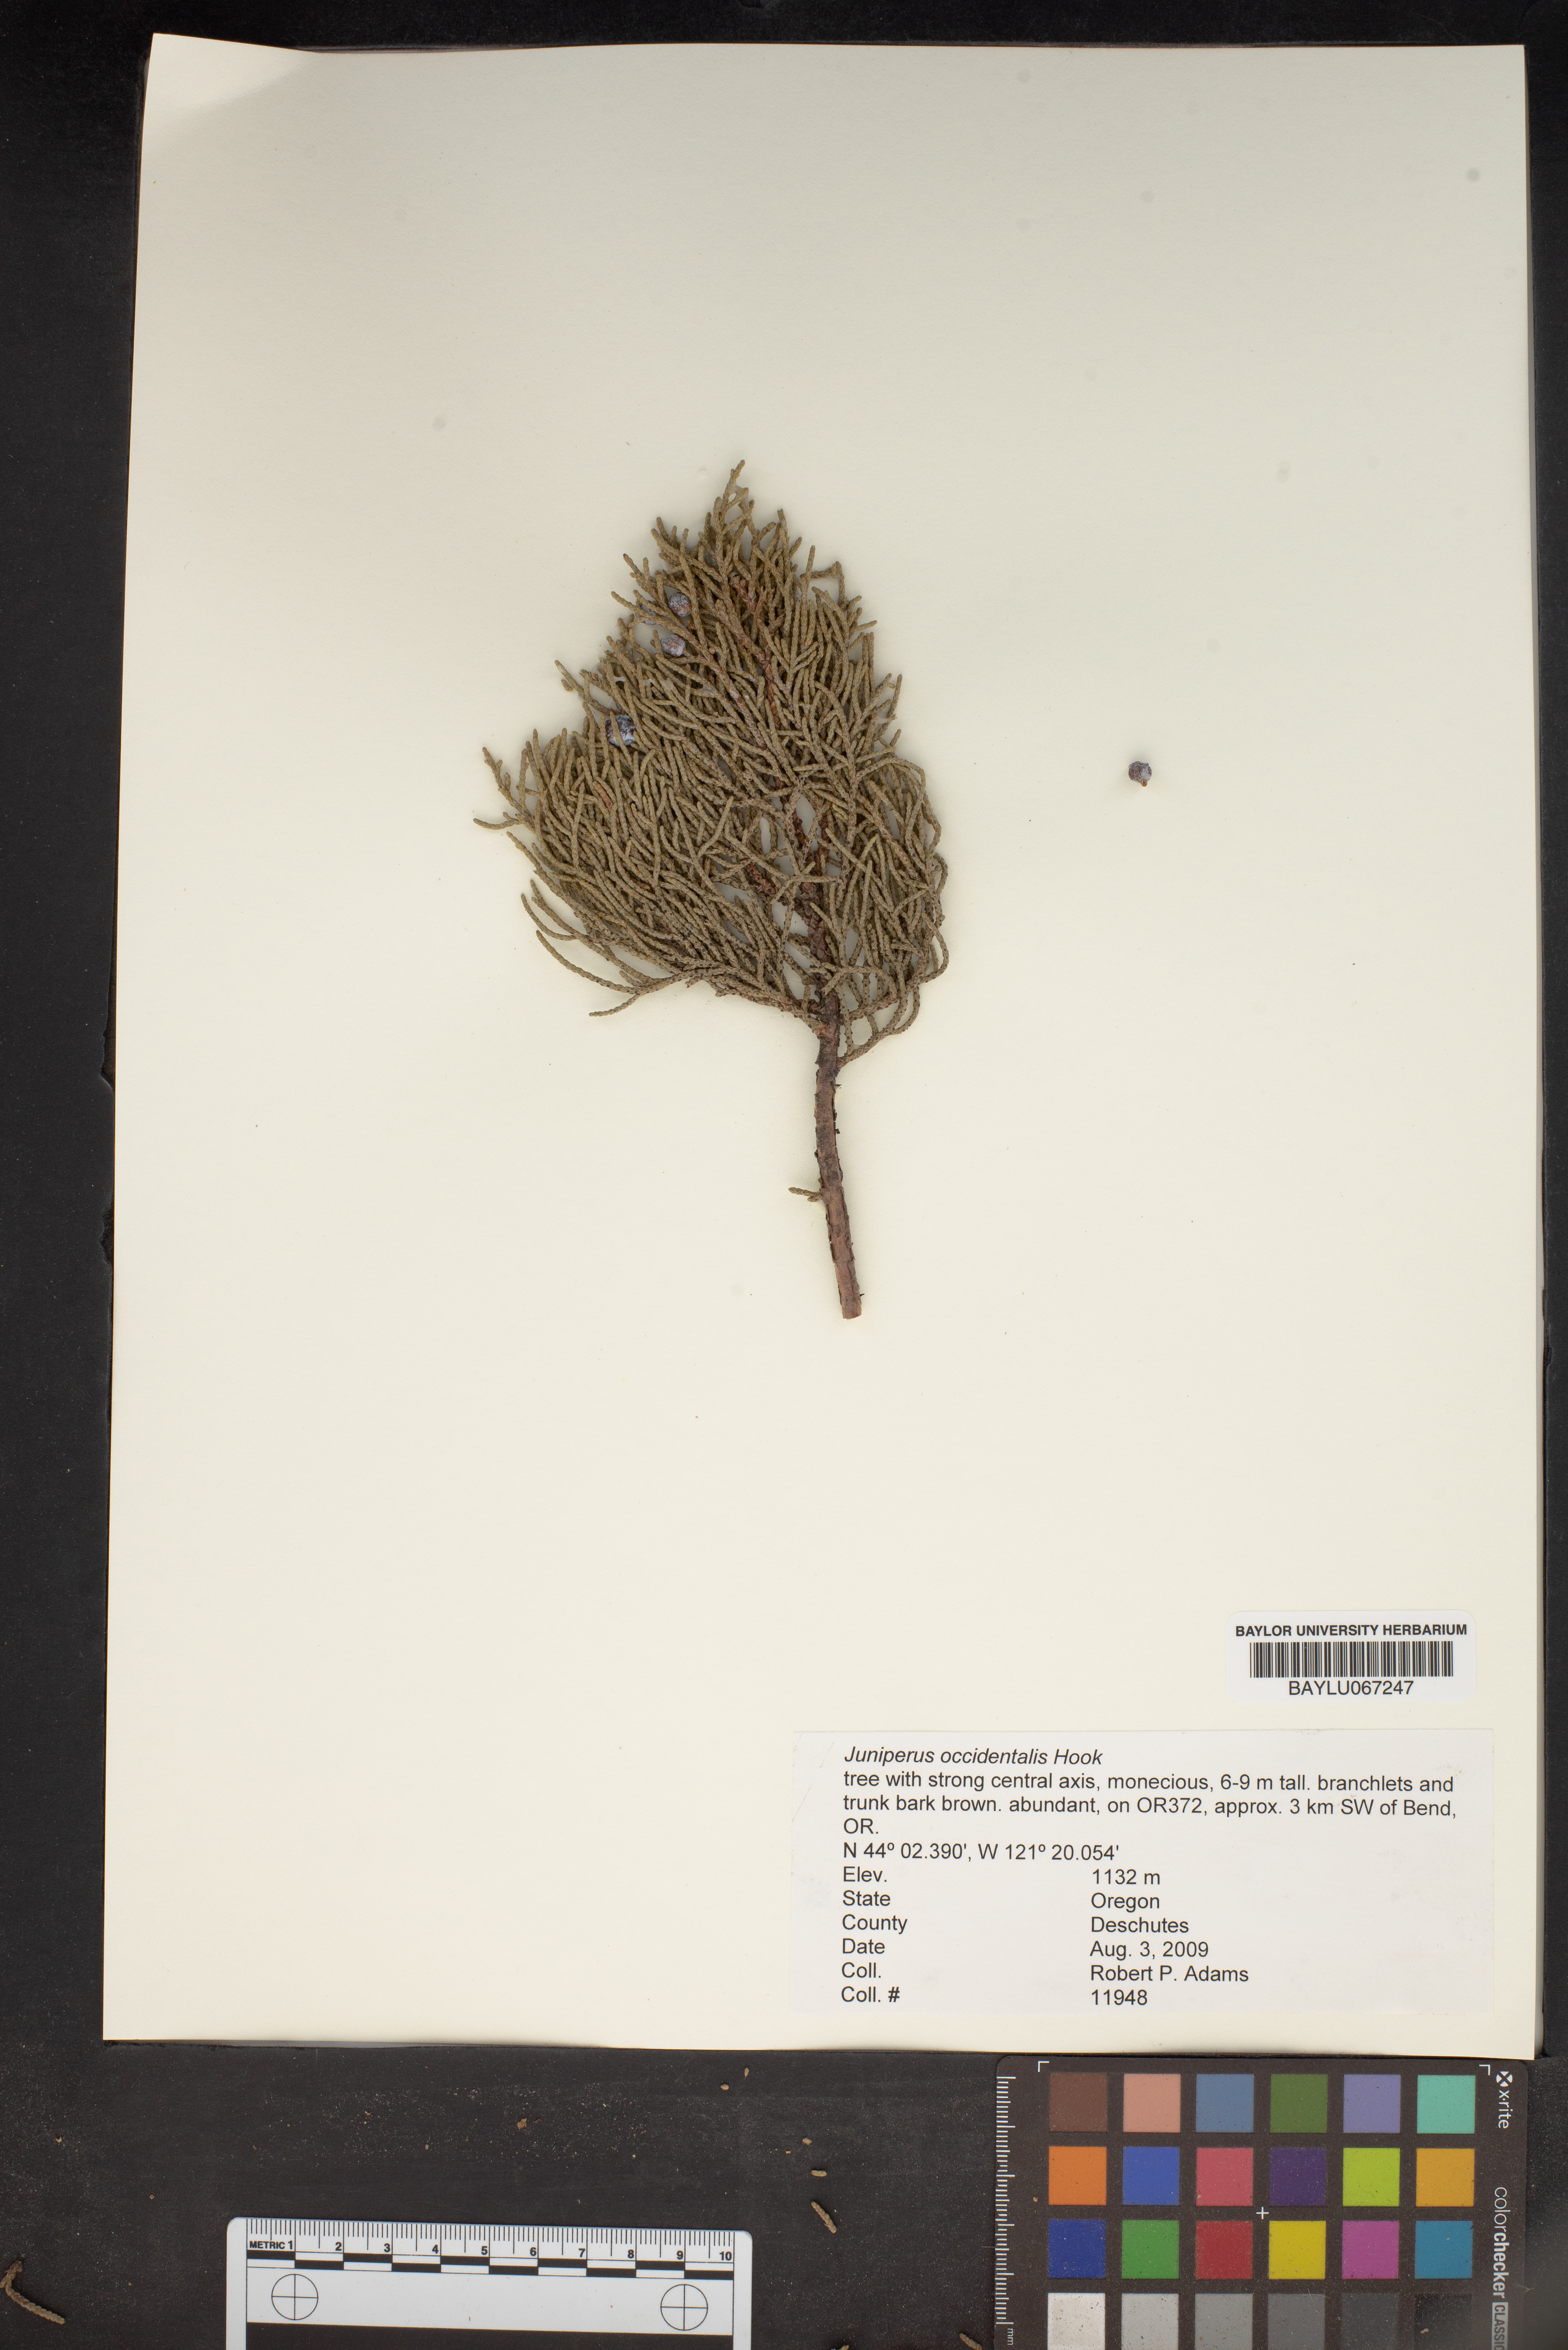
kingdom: Plantae
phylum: Tracheophyta
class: Pinopsida
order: Pinales
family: Cupressaceae
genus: Juniperus
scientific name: Juniperus occidentalis
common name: Western juniper
